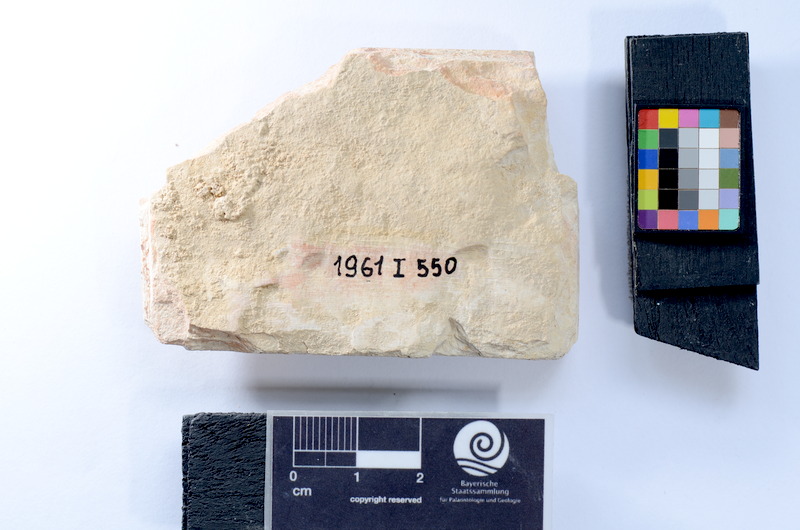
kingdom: Animalia
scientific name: Animalia
